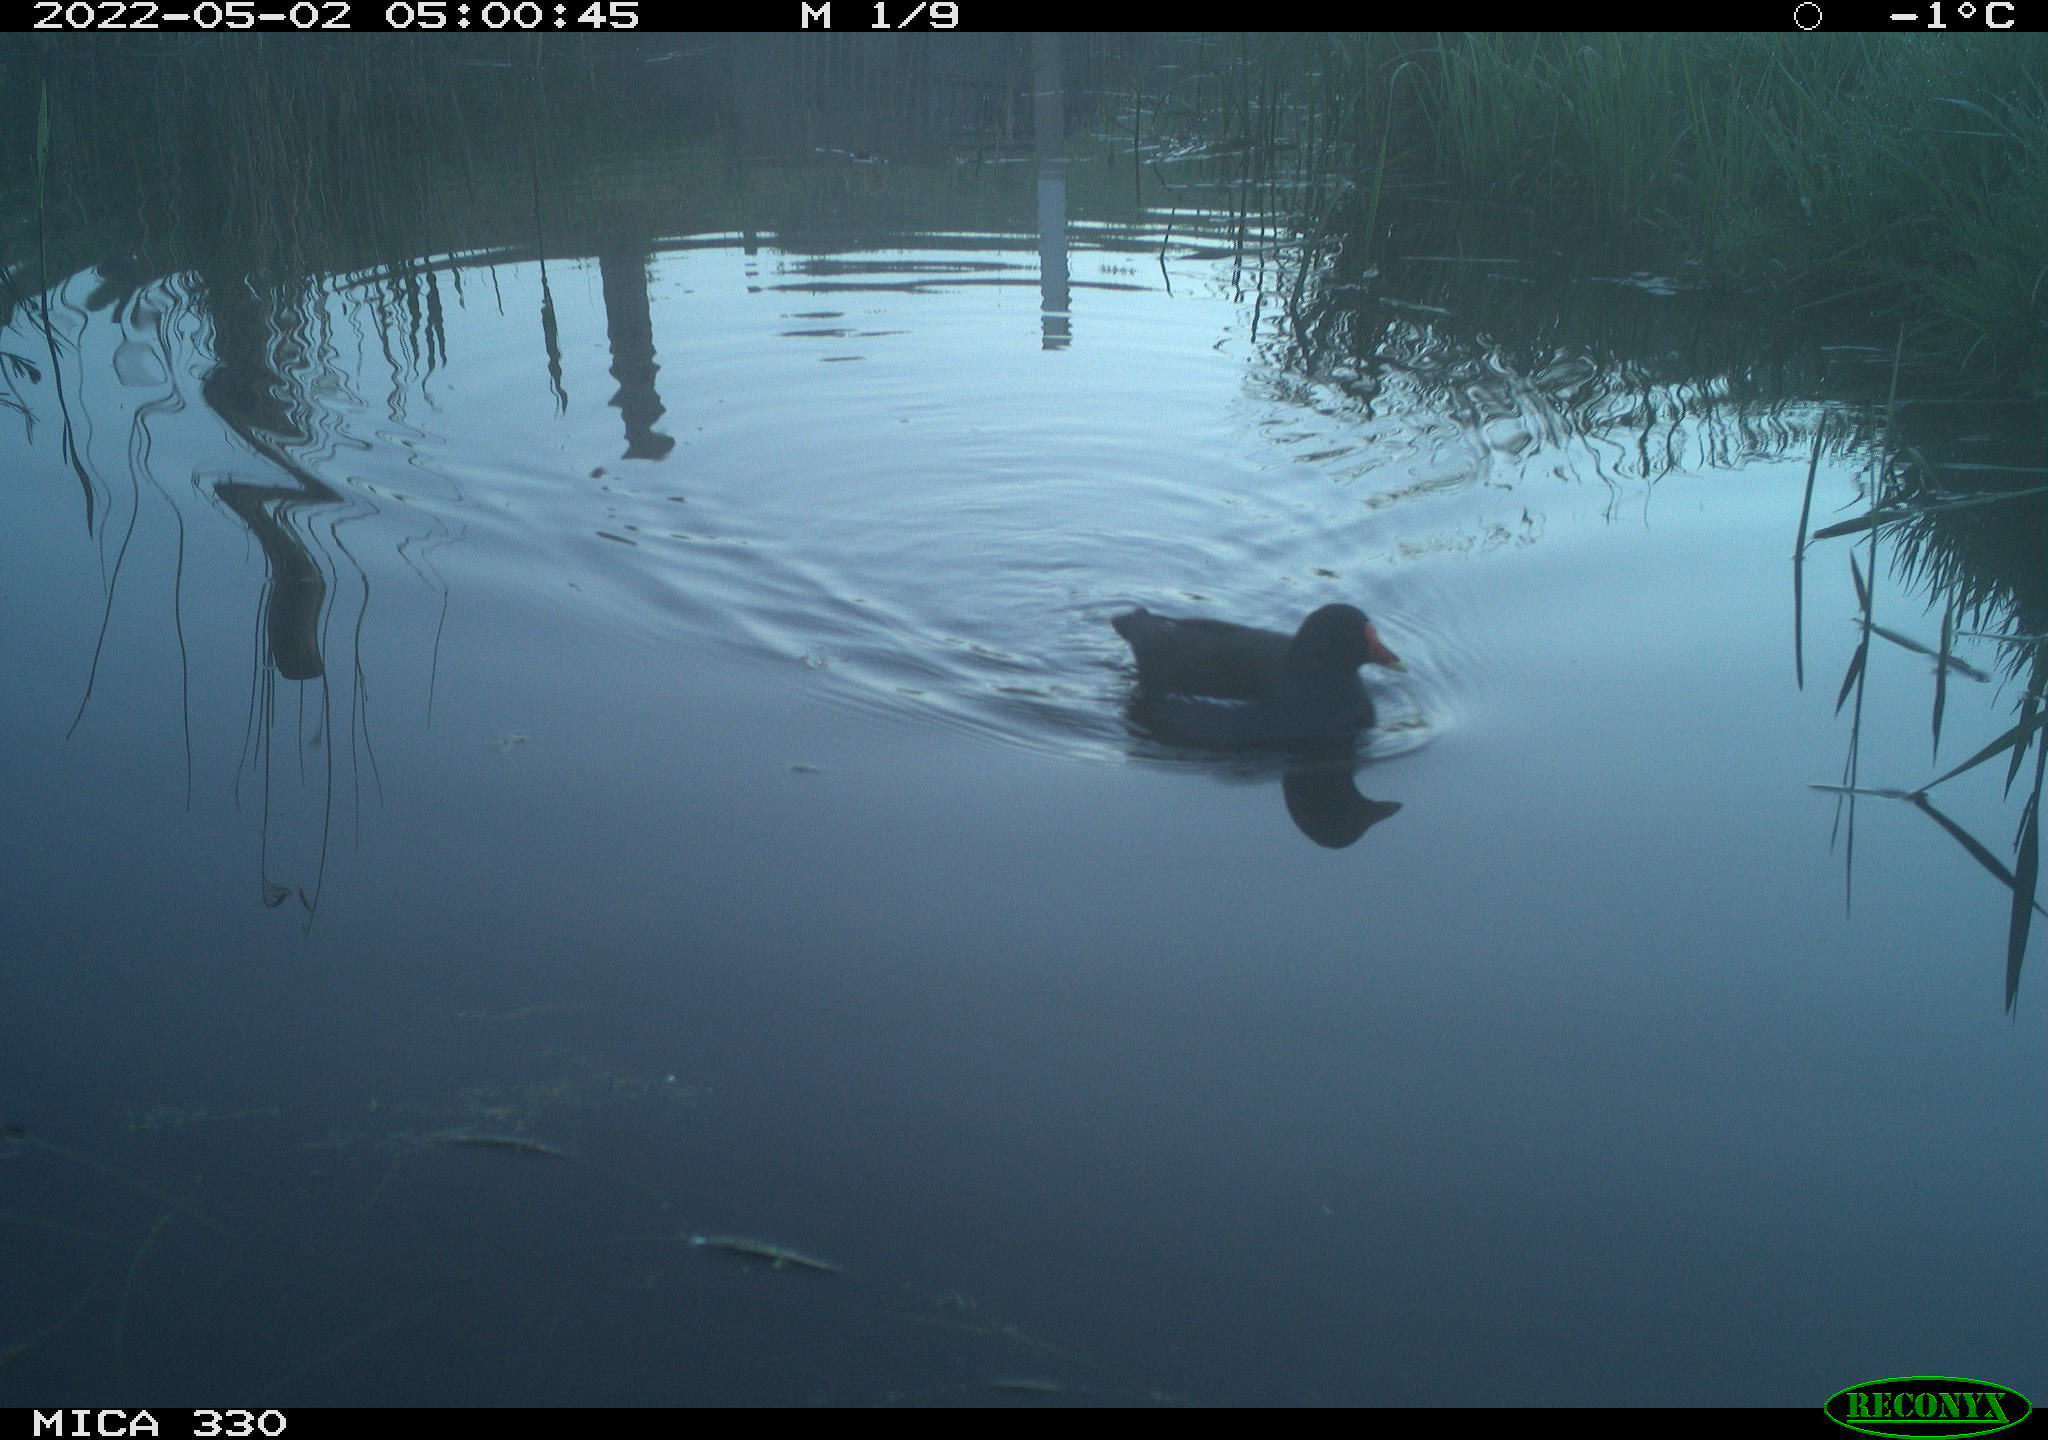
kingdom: Animalia
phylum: Chordata
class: Aves
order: Gruiformes
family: Rallidae
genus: Gallinula
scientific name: Gallinula chloropus
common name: Common moorhen
